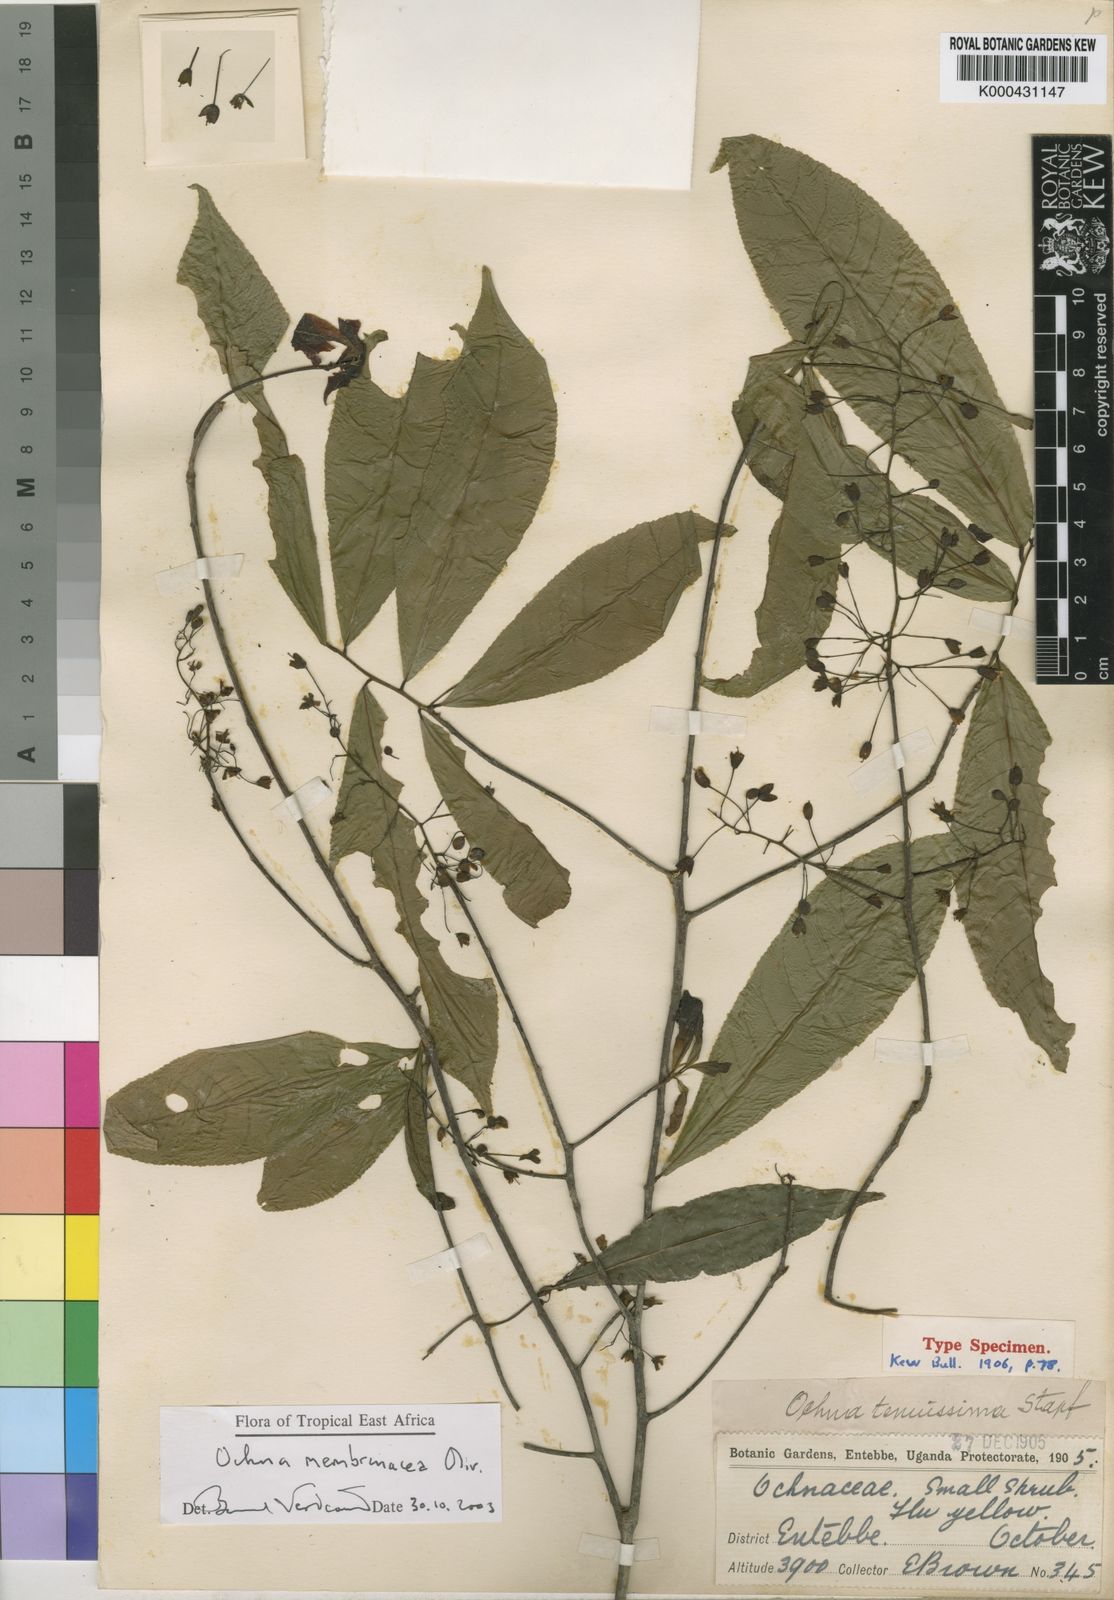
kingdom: Plantae
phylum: Tracheophyta
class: Magnoliopsida
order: Malpighiales
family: Ochnaceae
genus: Ochna
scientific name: Ochna membranacea
